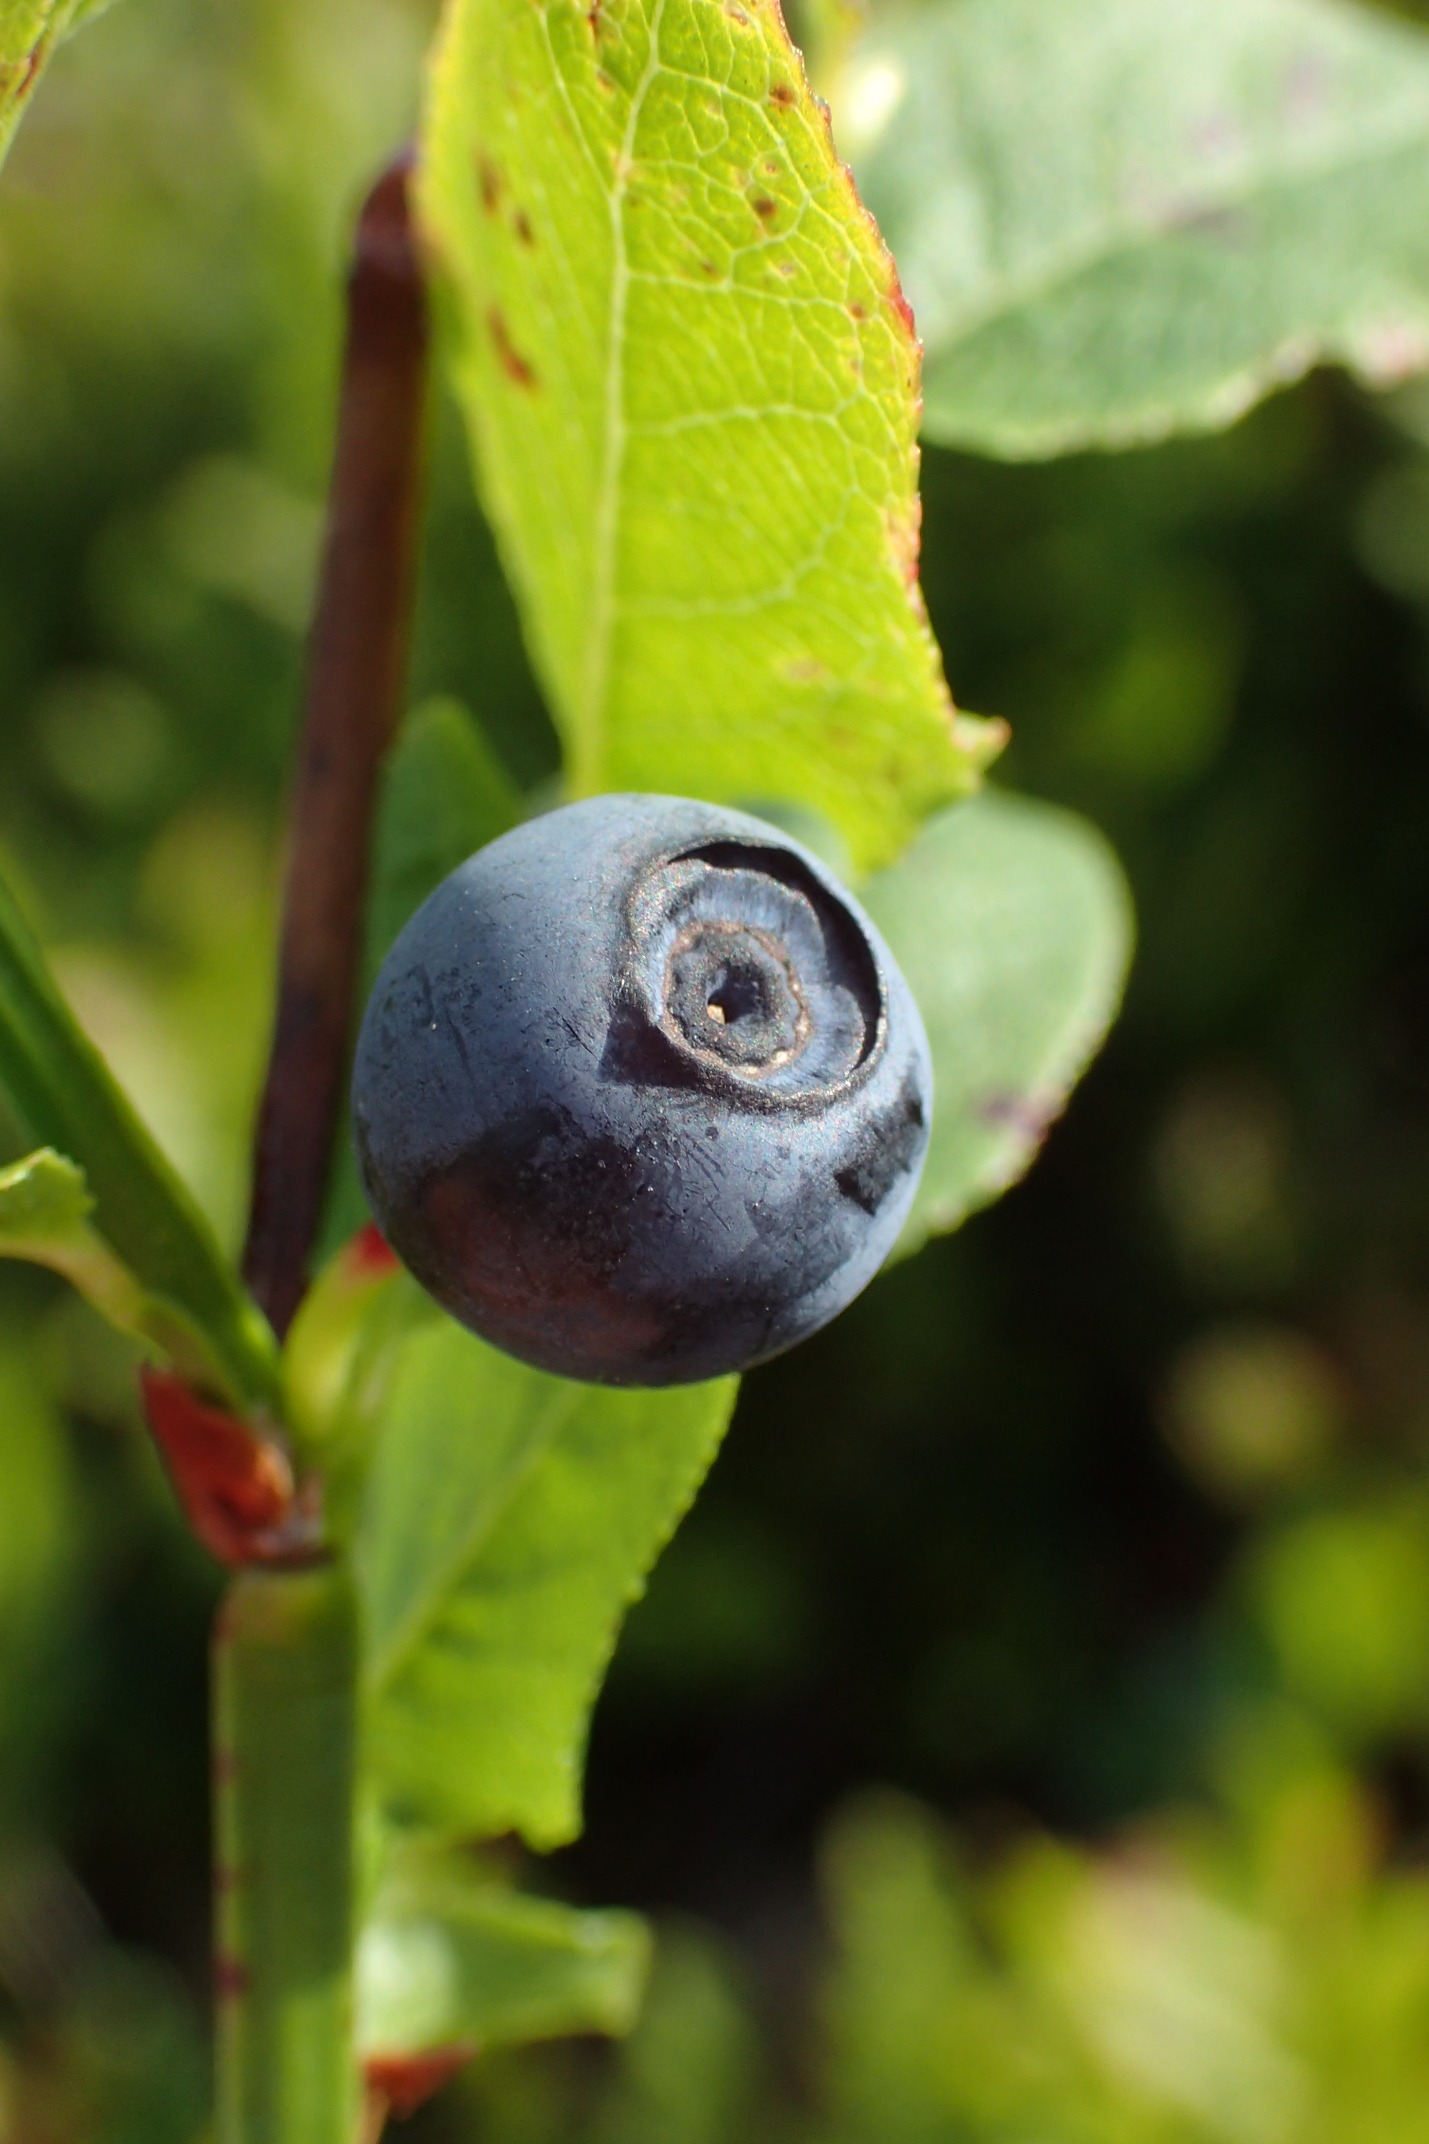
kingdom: Plantae
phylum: Tracheophyta
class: Magnoliopsida
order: Ericales
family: Ericaceae
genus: Vaccinium
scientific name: Vaccinium myrtillus
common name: Blåbær
